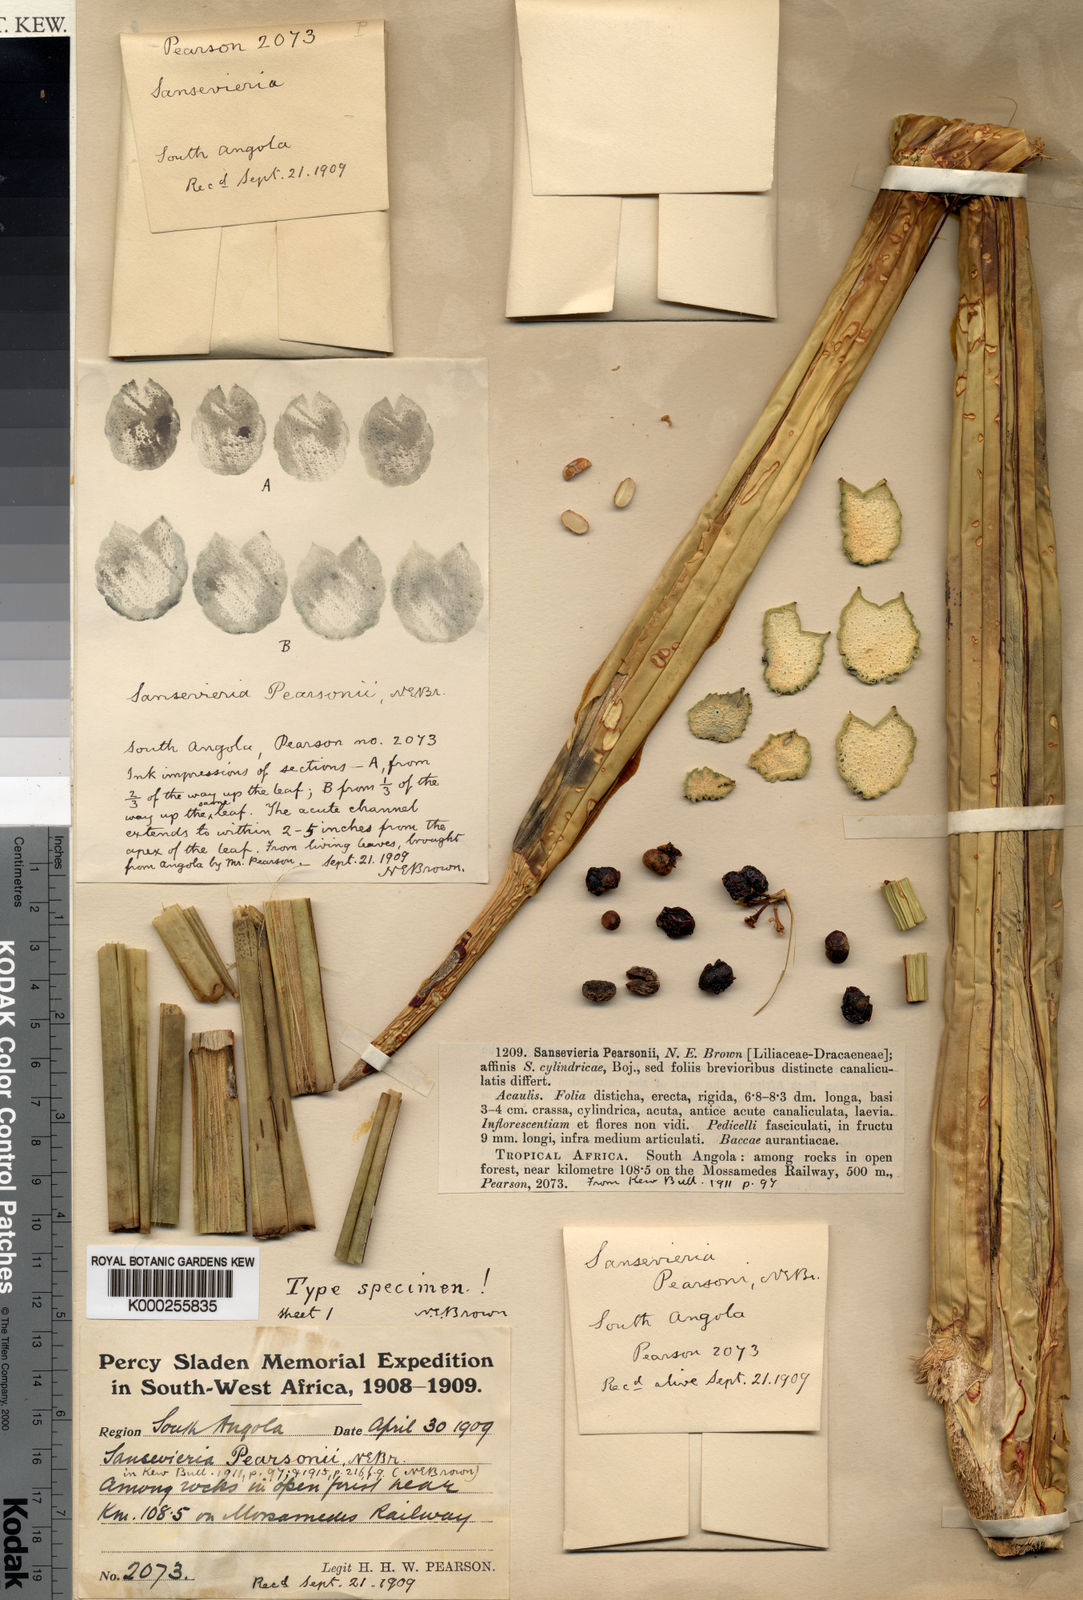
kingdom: Plantae
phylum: Tracheophyta
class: Liliopsida
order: Asparagales
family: Asparagaceae
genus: Dracaena
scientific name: Dracaena pearsonii
